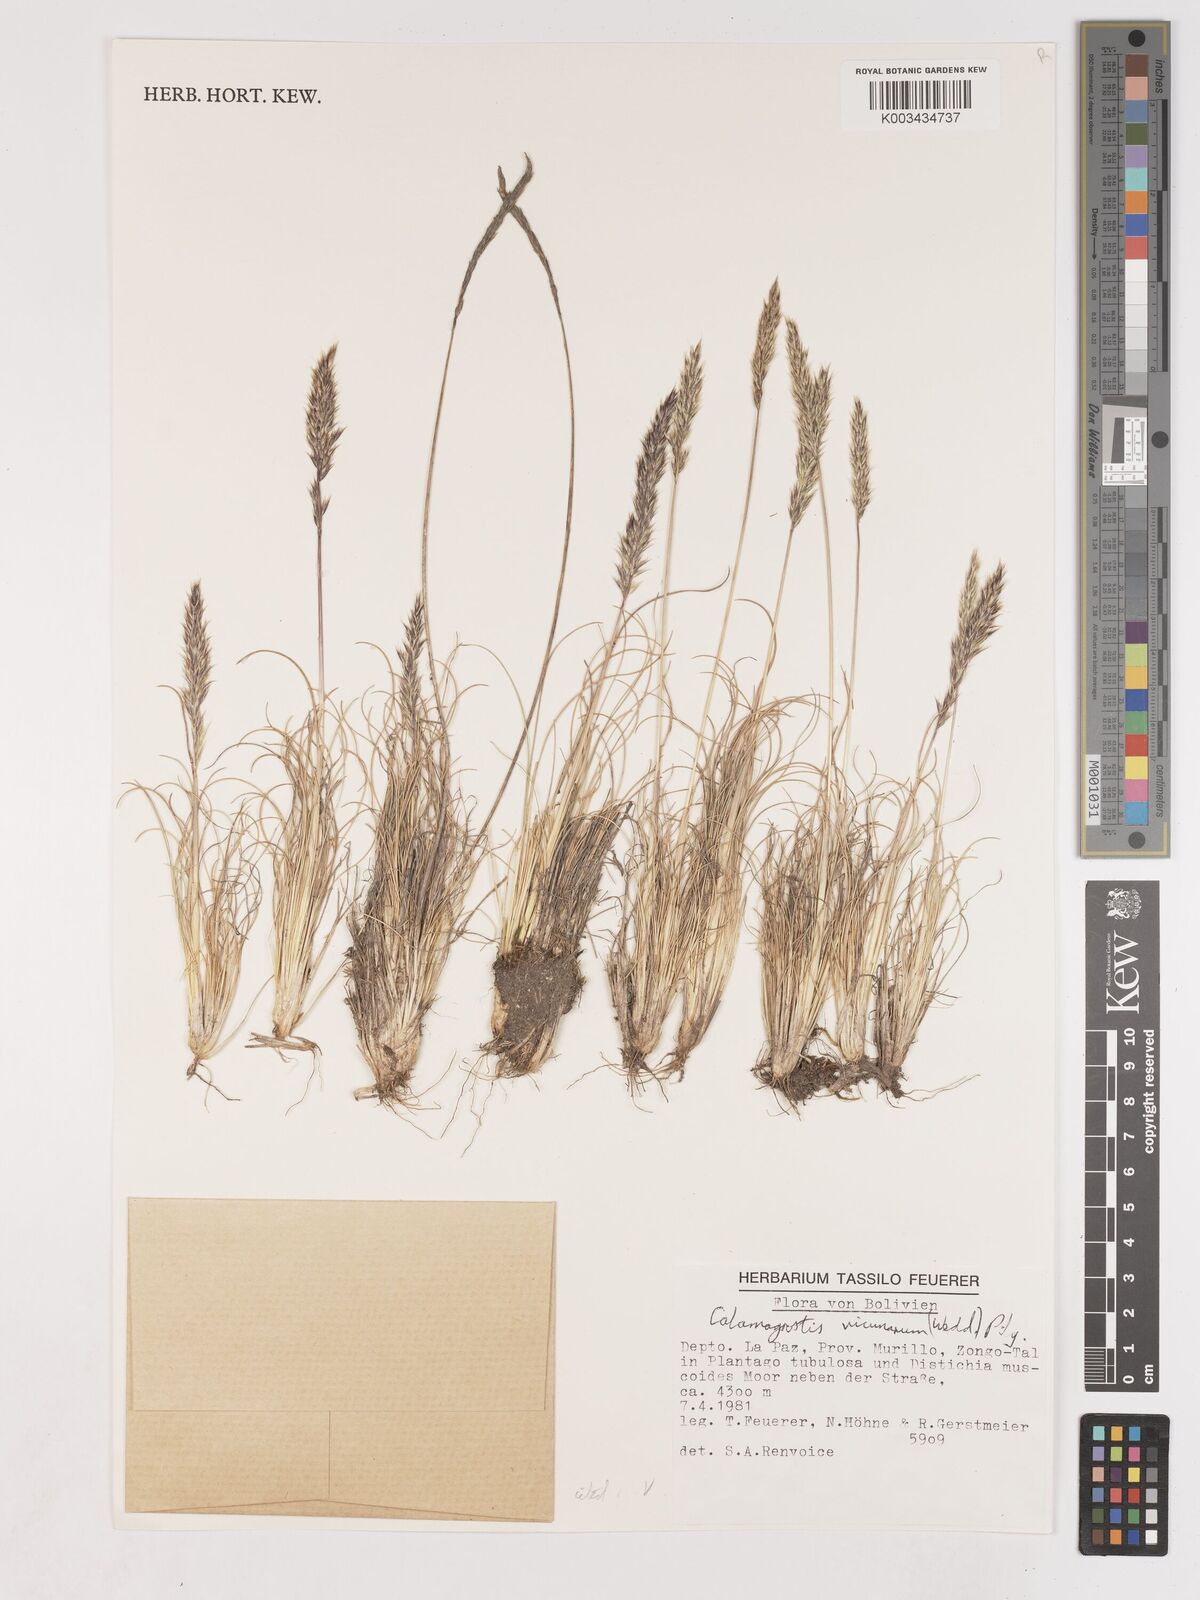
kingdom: Plantae
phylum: Tracheophyta
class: Liliopsida
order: Poales
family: Poaceae
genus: Cinnagrostis
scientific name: Cinnagrostis vicunarum
